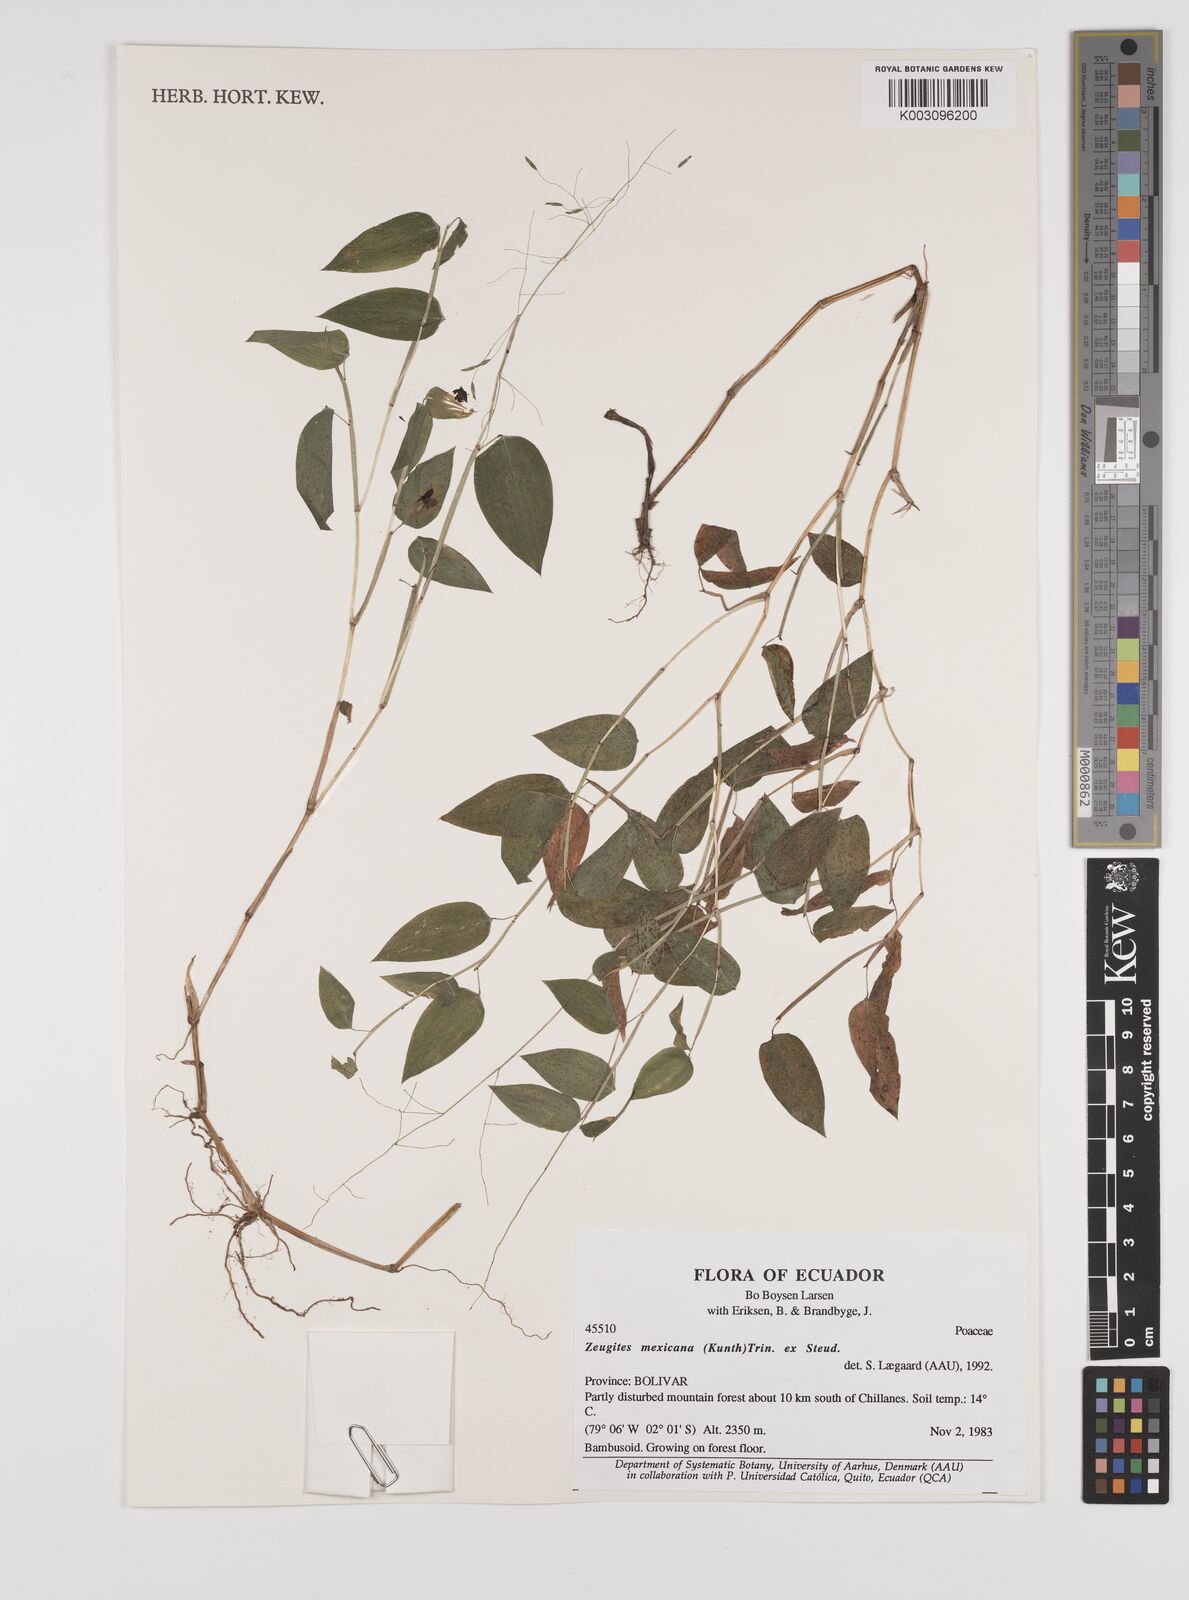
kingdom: Plantae
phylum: Tracheophyta
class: Liliopsida
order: Poales
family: Poaceae
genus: Zeugites
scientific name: Zeugites americanus
